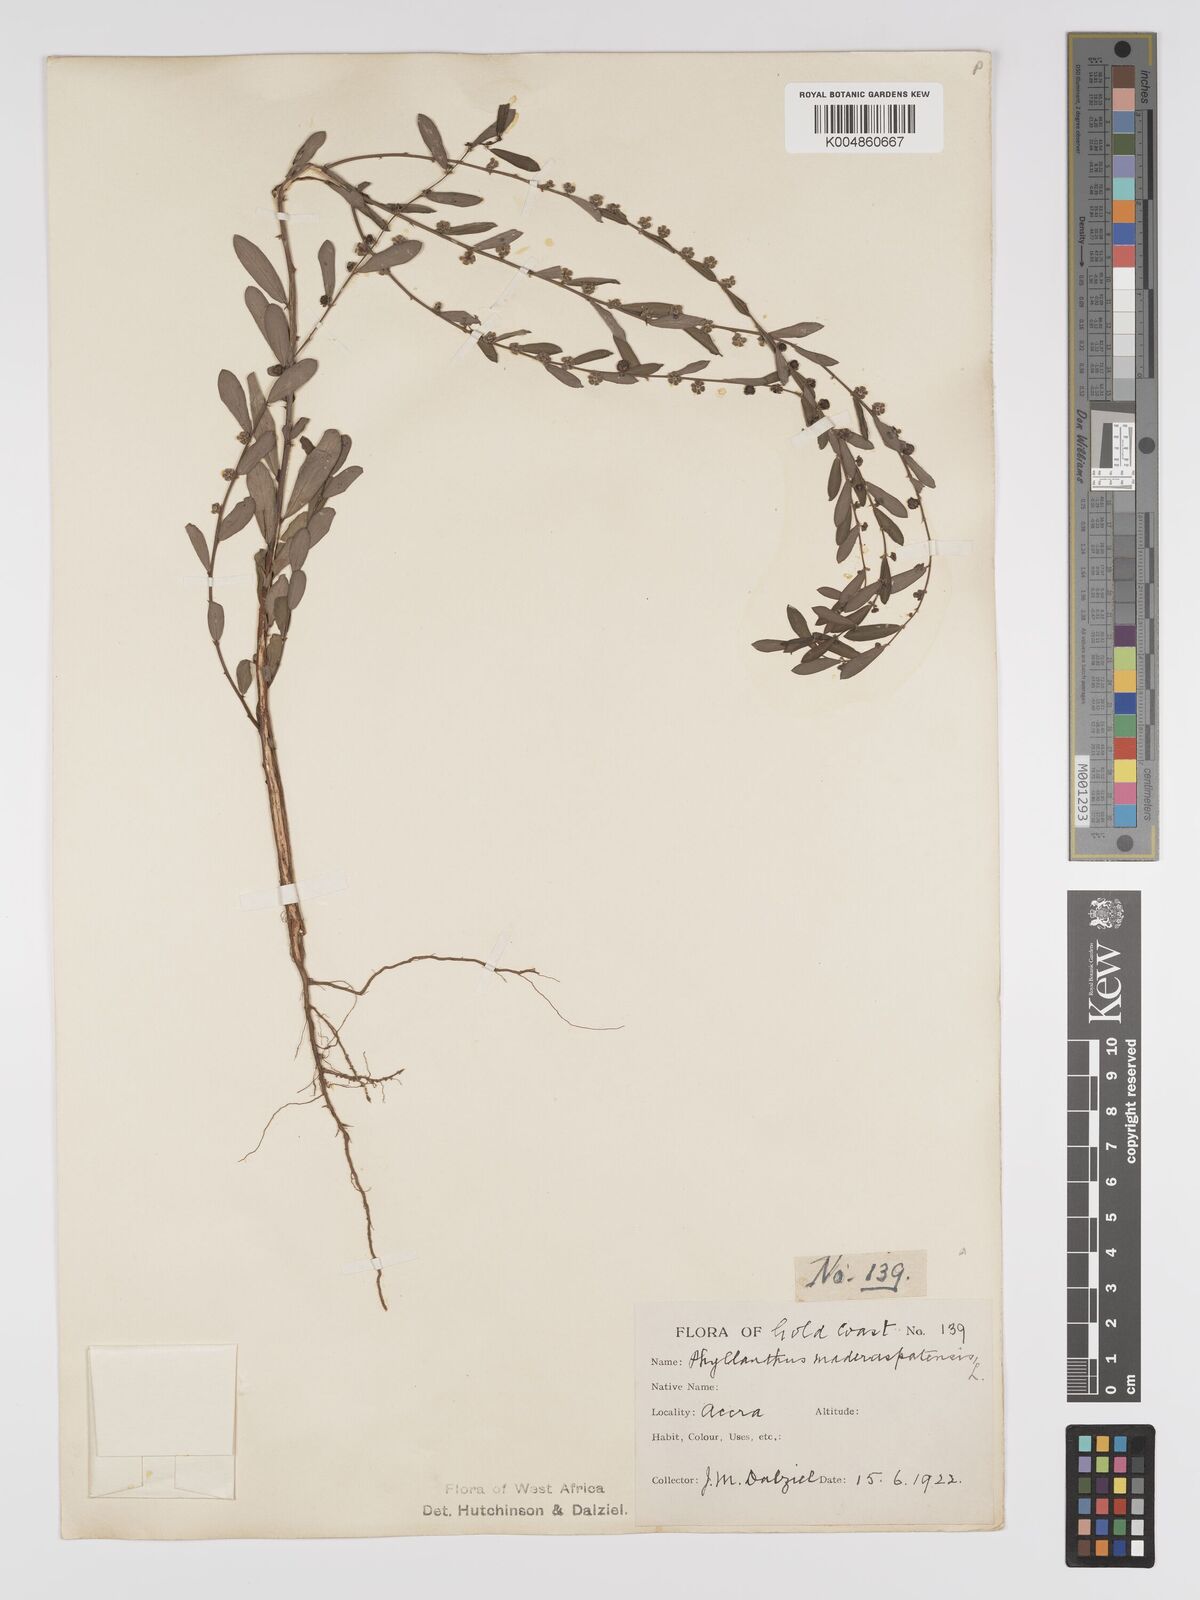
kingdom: Plantae
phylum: Tracheophyta
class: Magnoliopsida
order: Malpighiales
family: Phyllanthaceae
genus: Phyllanthus
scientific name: Phyllanthus
